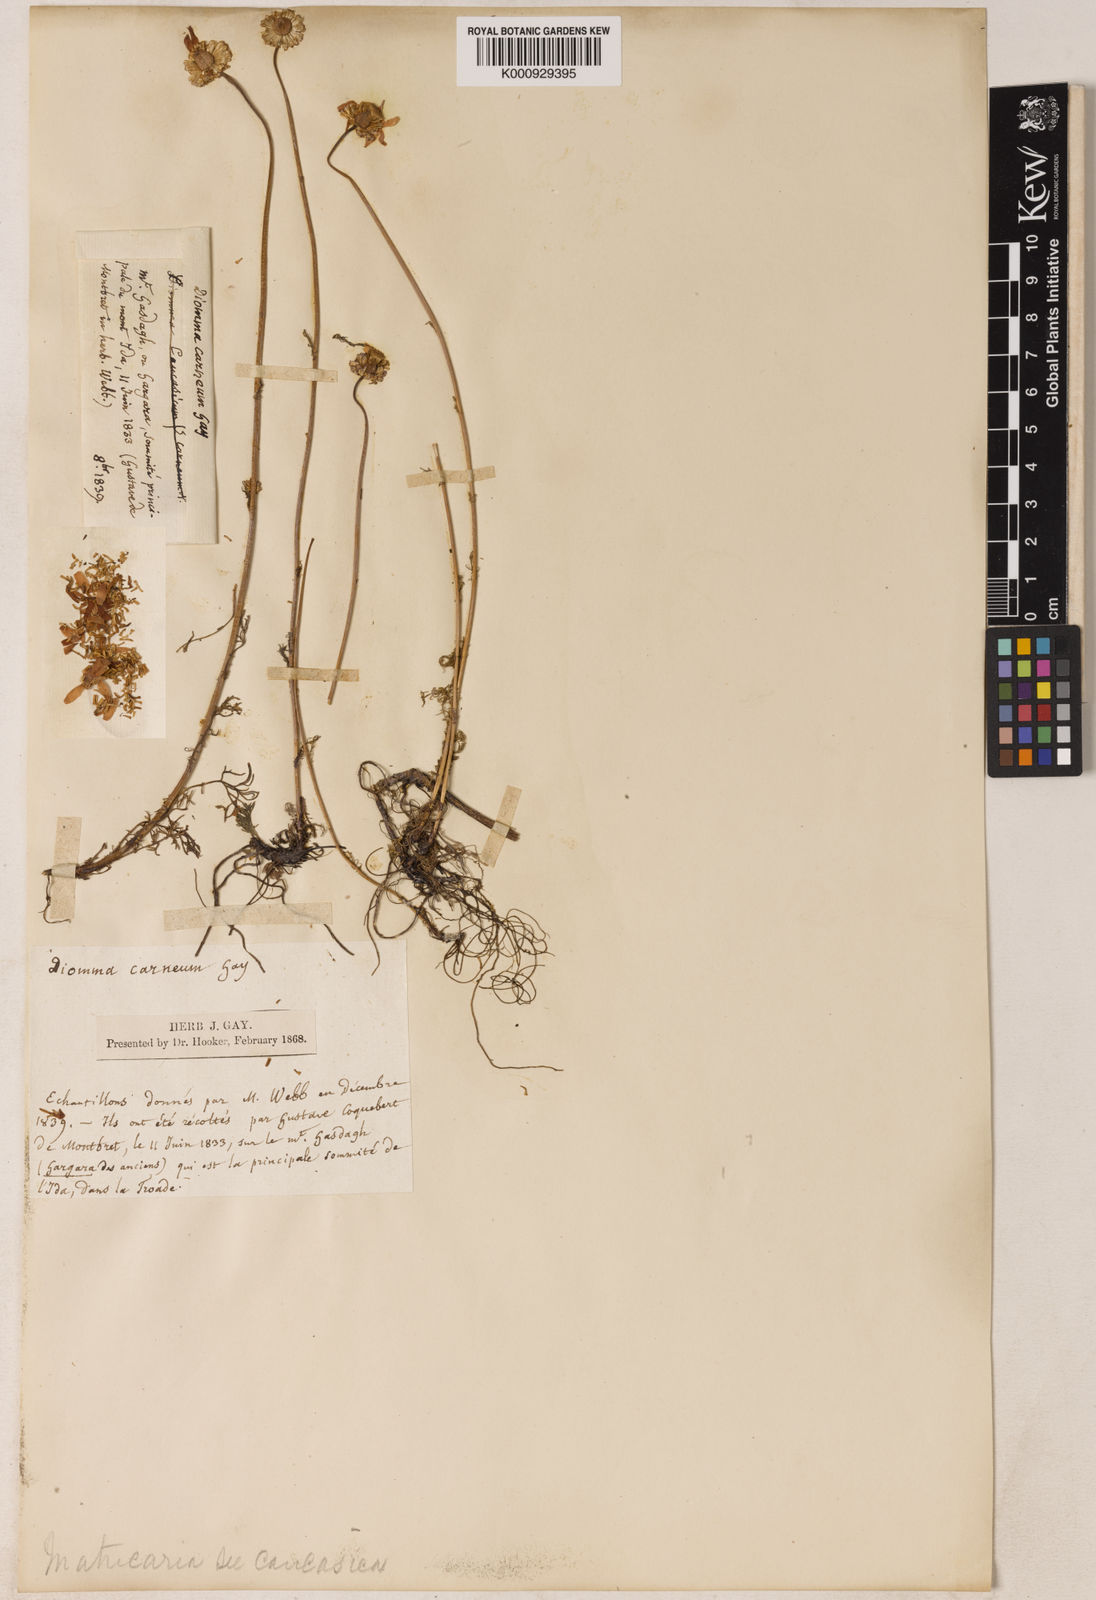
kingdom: Plantae
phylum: Tracheophyta
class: Magnoliopsida
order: Asterales
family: Asteraceae
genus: Tripleurospermum
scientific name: Tripleurospermum rosellum
